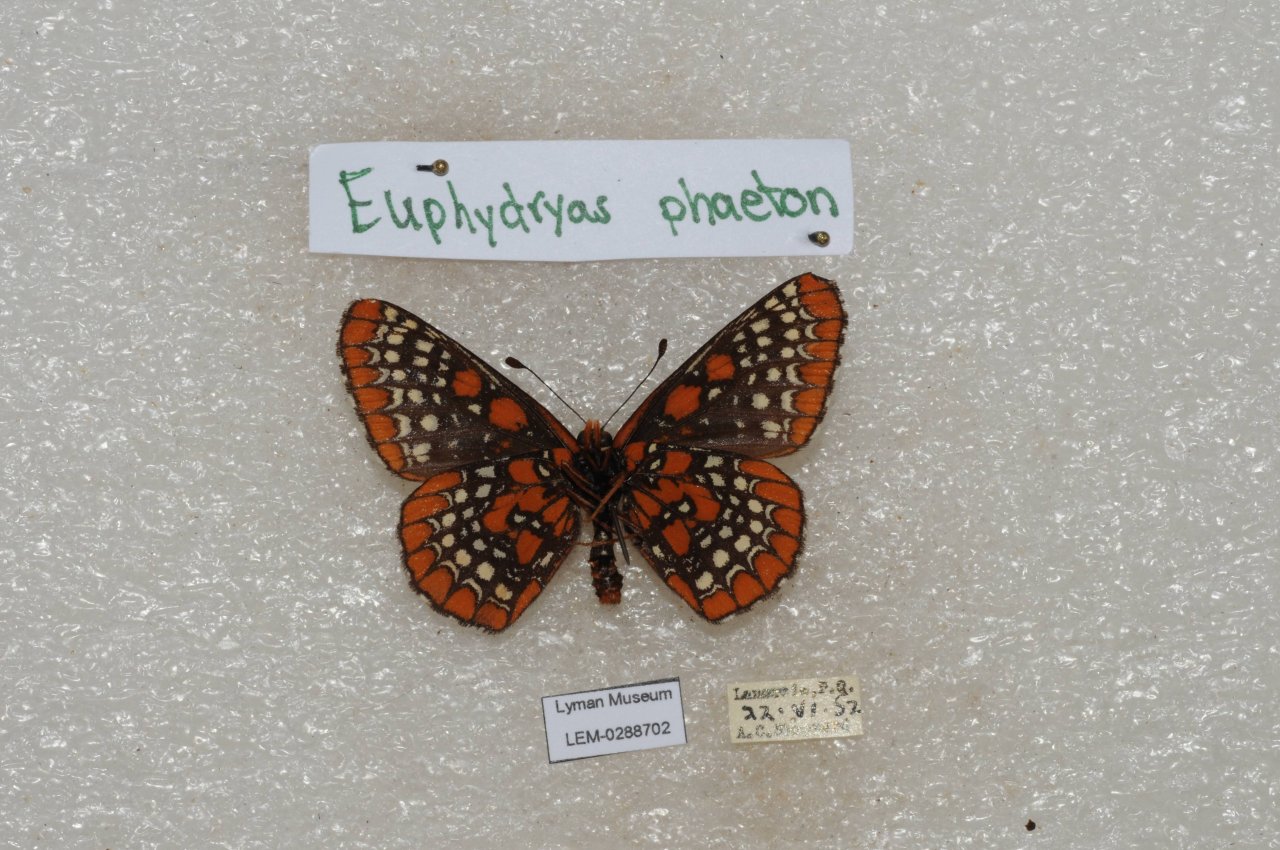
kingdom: Animalia
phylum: Arthropoda
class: Insecta
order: Lepidoptera
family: Nymphalidae
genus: Euphydryas
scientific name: Euphydryas phaeton
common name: Baltimore Checkerspot
